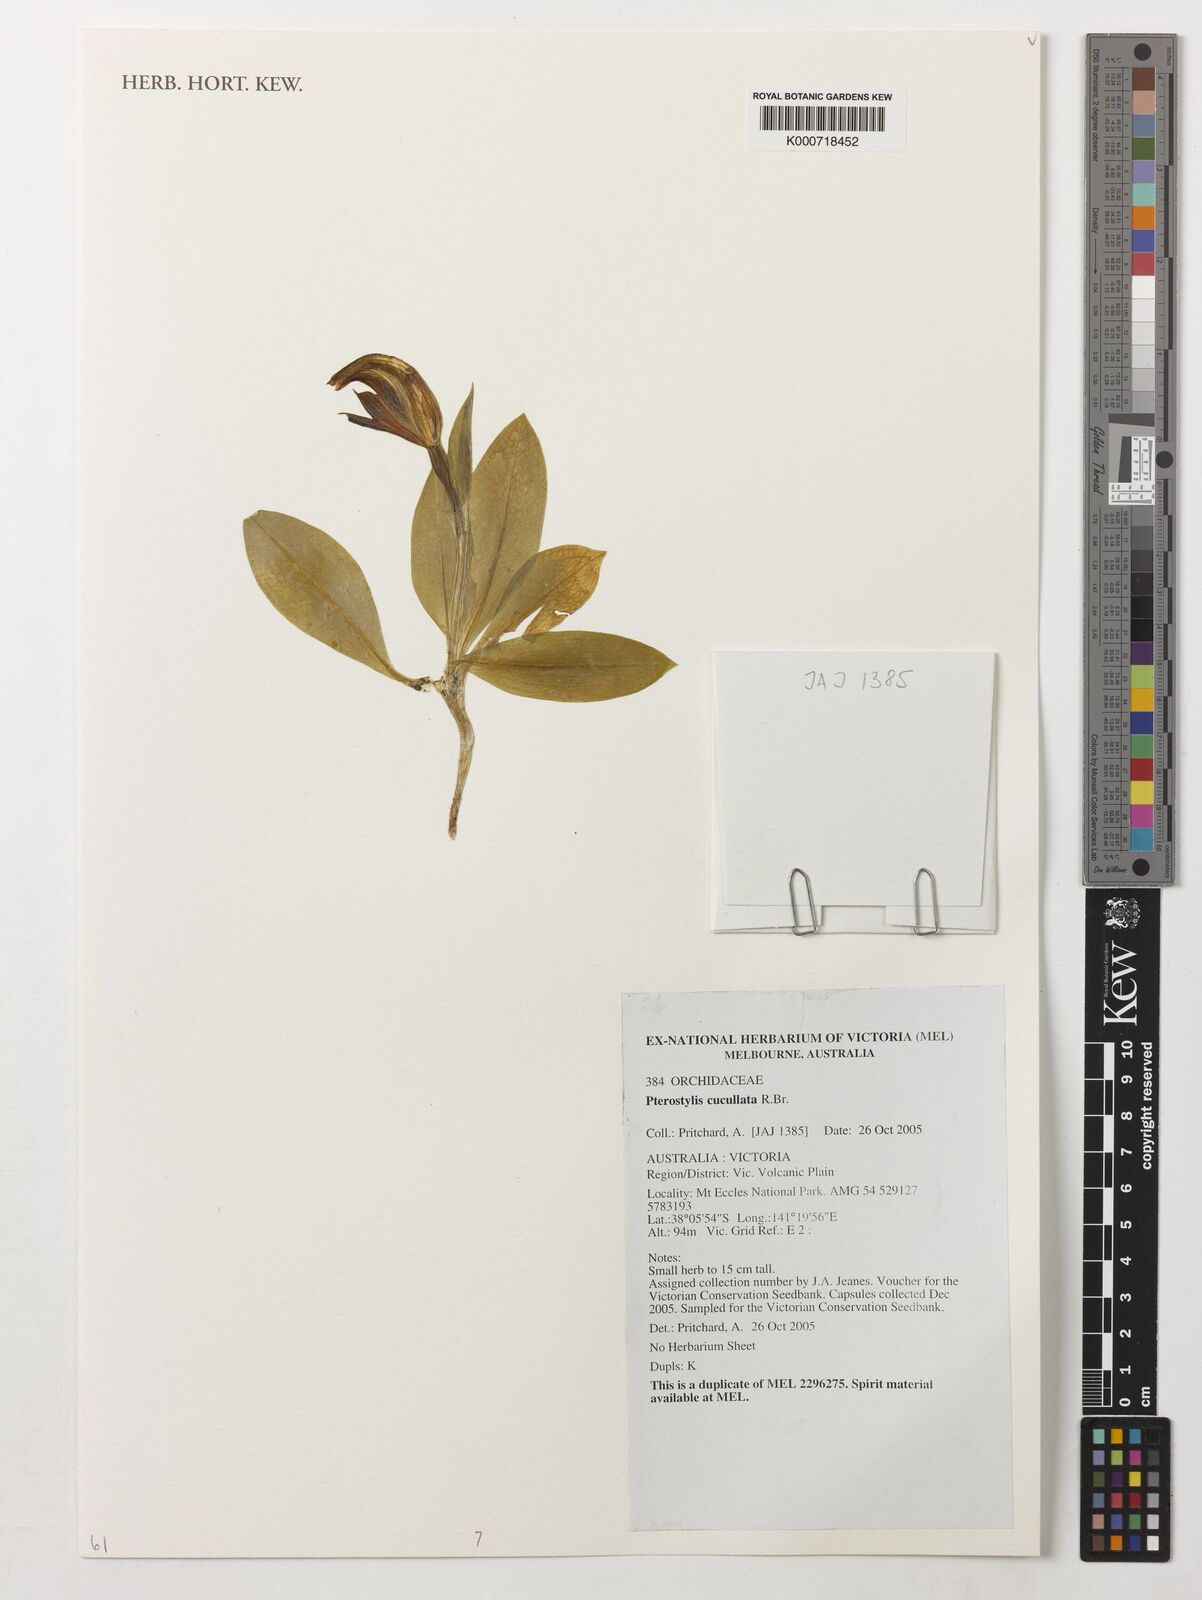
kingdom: Plantae
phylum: Tracheophyta
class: Liliopsida
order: Asparagales
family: Orchidaceae
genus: Pterostylis
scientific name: Pterostylis cucullata
